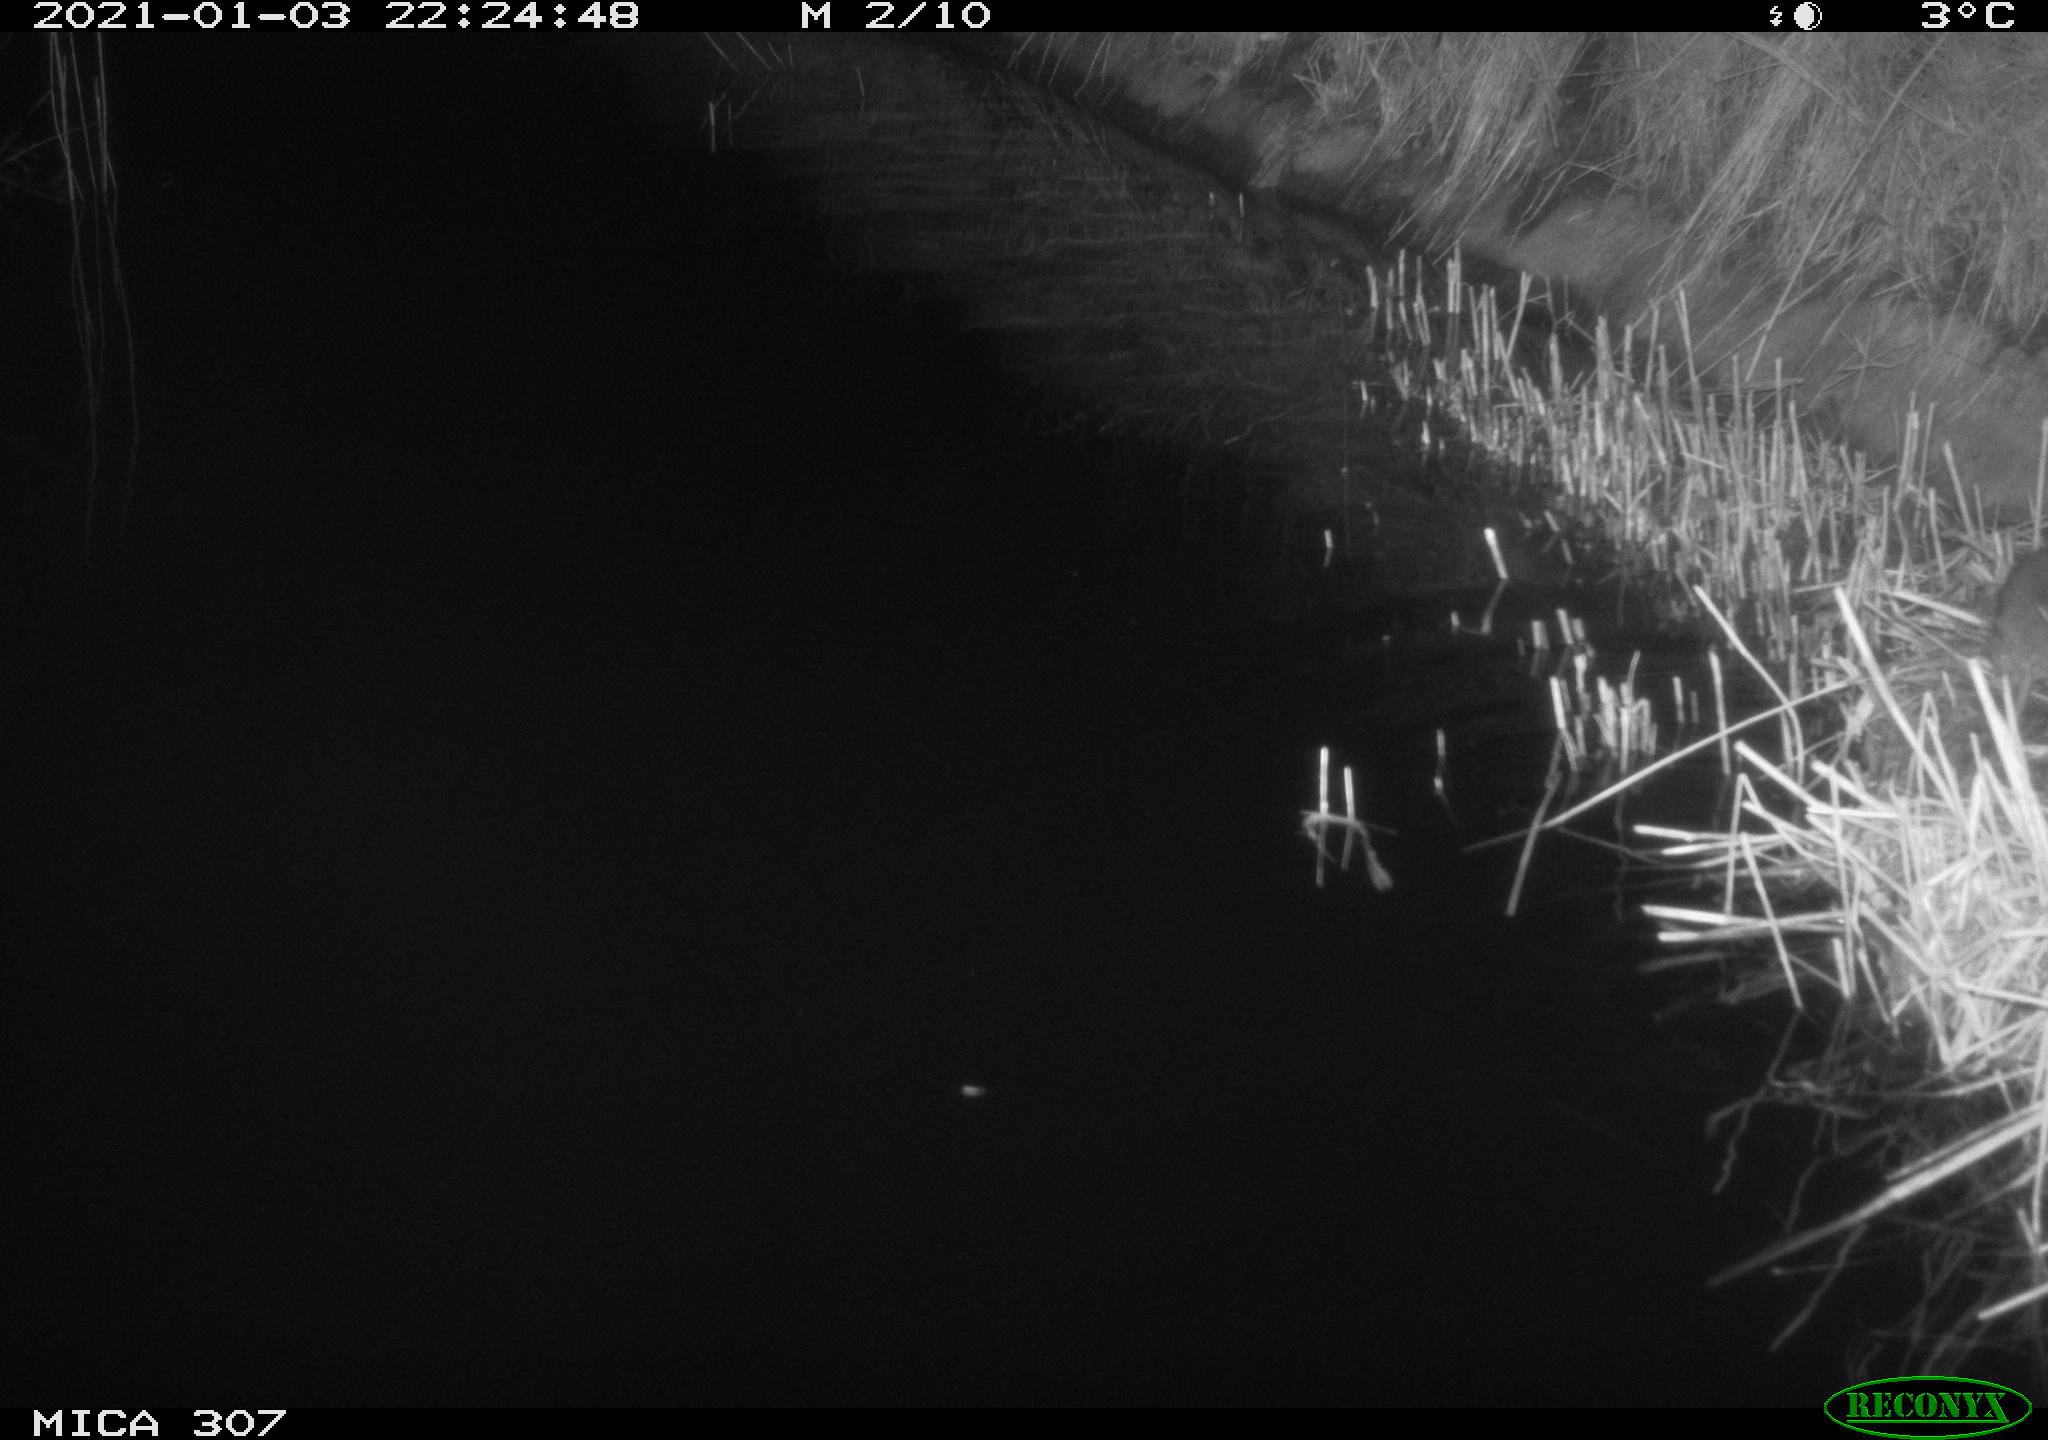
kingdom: Animalia
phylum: Chordata
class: Mammalia
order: Rodentia
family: Muridae
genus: Rattus
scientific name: Rattus norvegicus
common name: Brown rat
